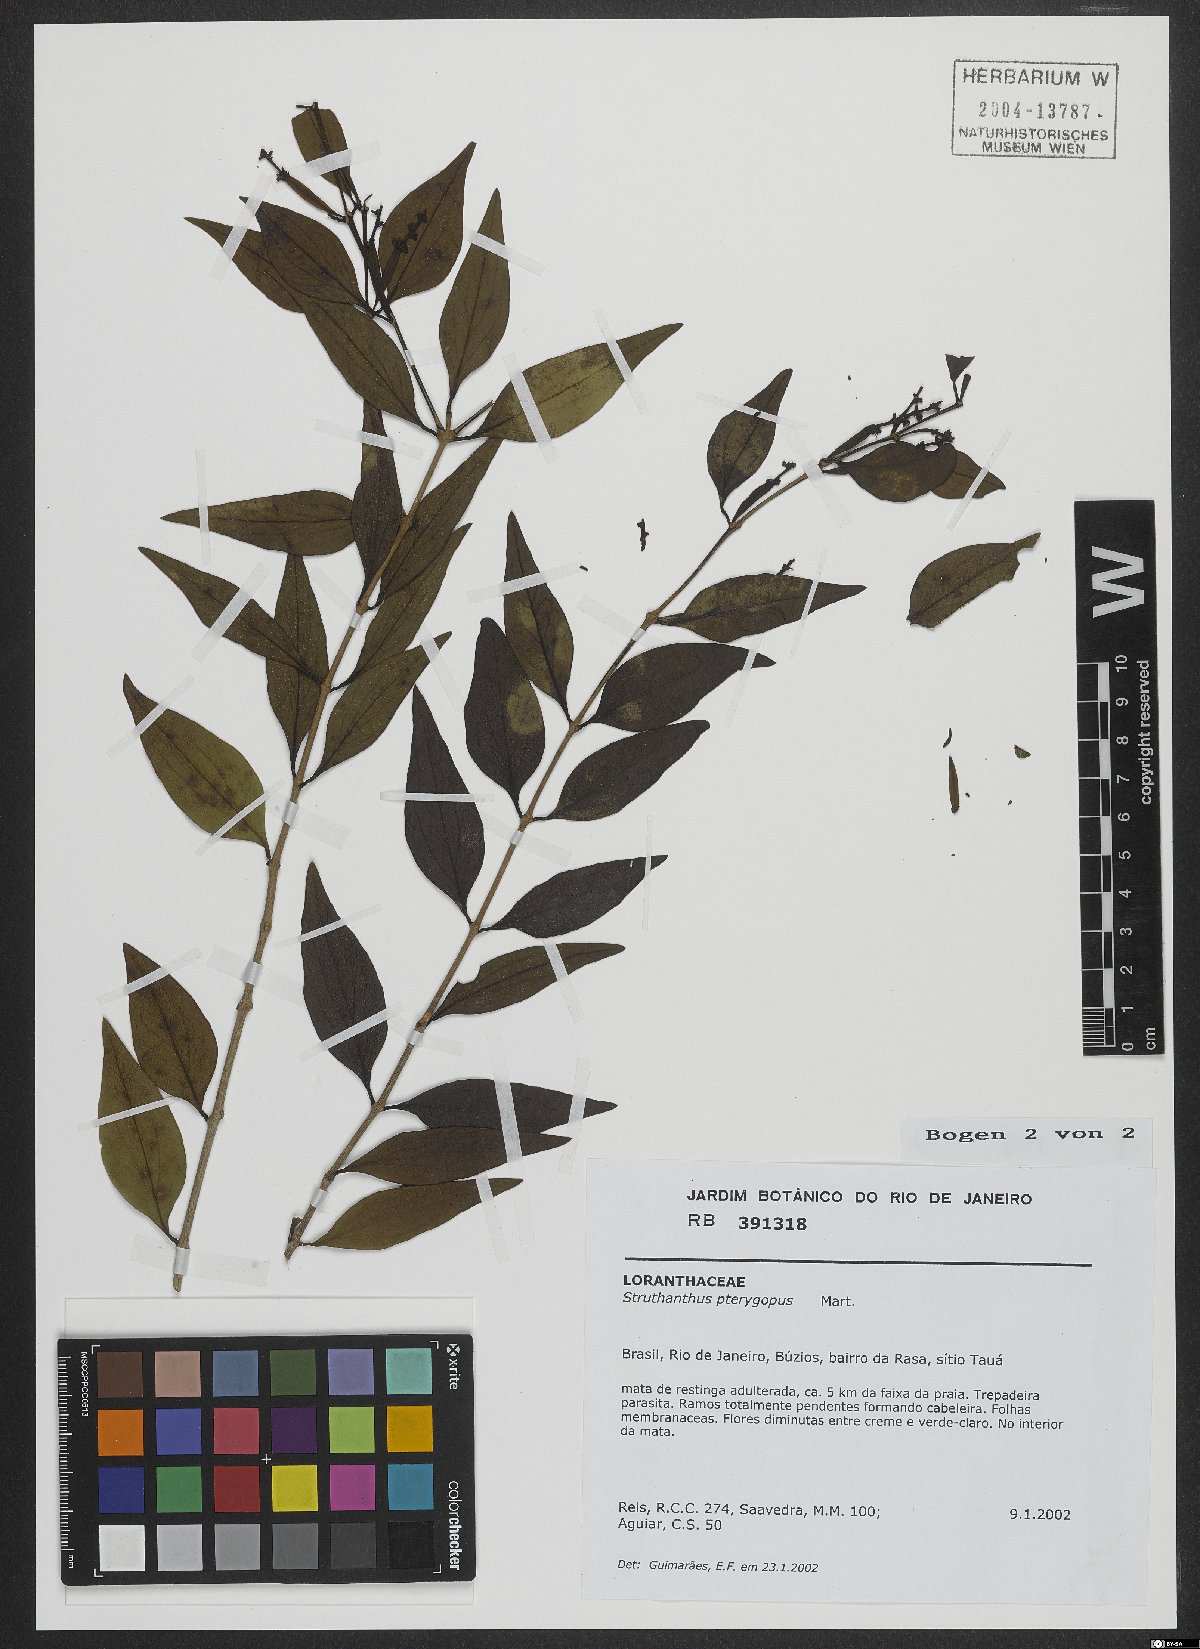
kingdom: Plantae
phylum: Tracheophyta
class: Magnoliopsida
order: Santalales
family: Loranthaceae
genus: Passovia
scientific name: Passovia podoptera
